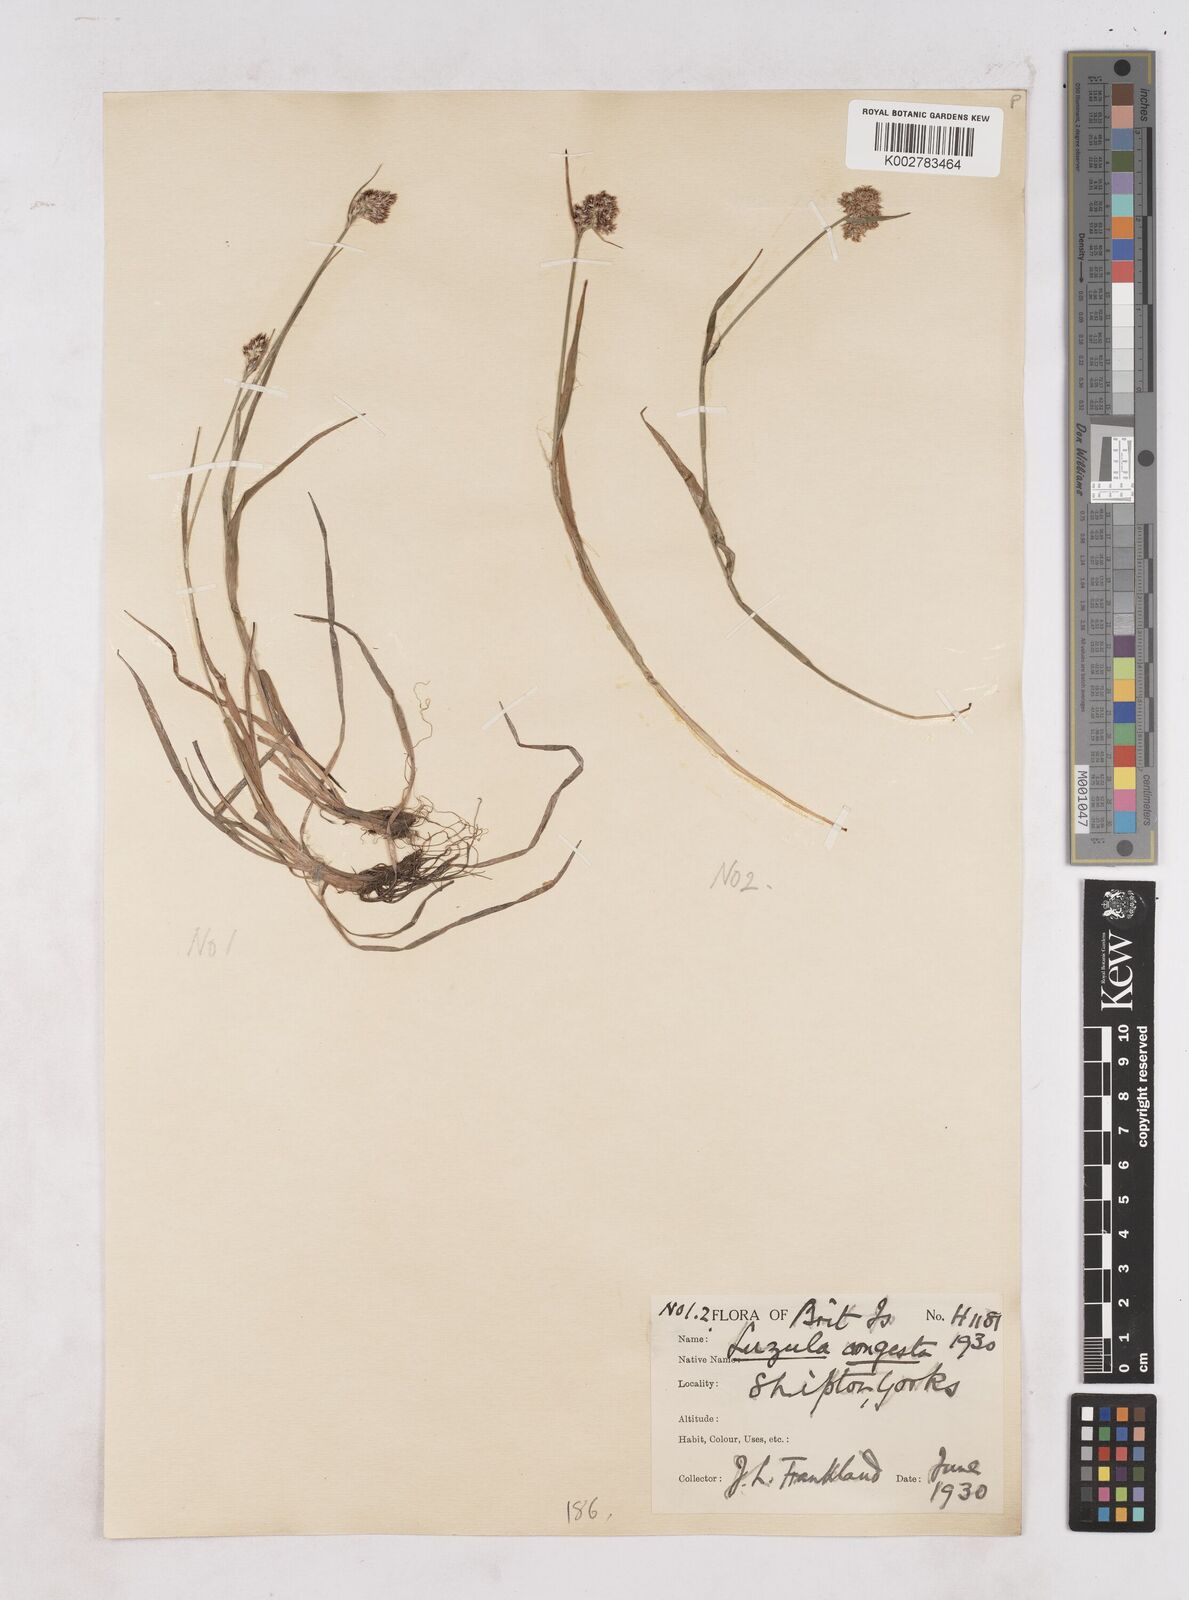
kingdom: Plantae
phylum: Tracheophyta
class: Liliopsida
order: Poales
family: Juncaceae
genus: Luzula
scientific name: Luzula campestris
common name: Field wood-rush
